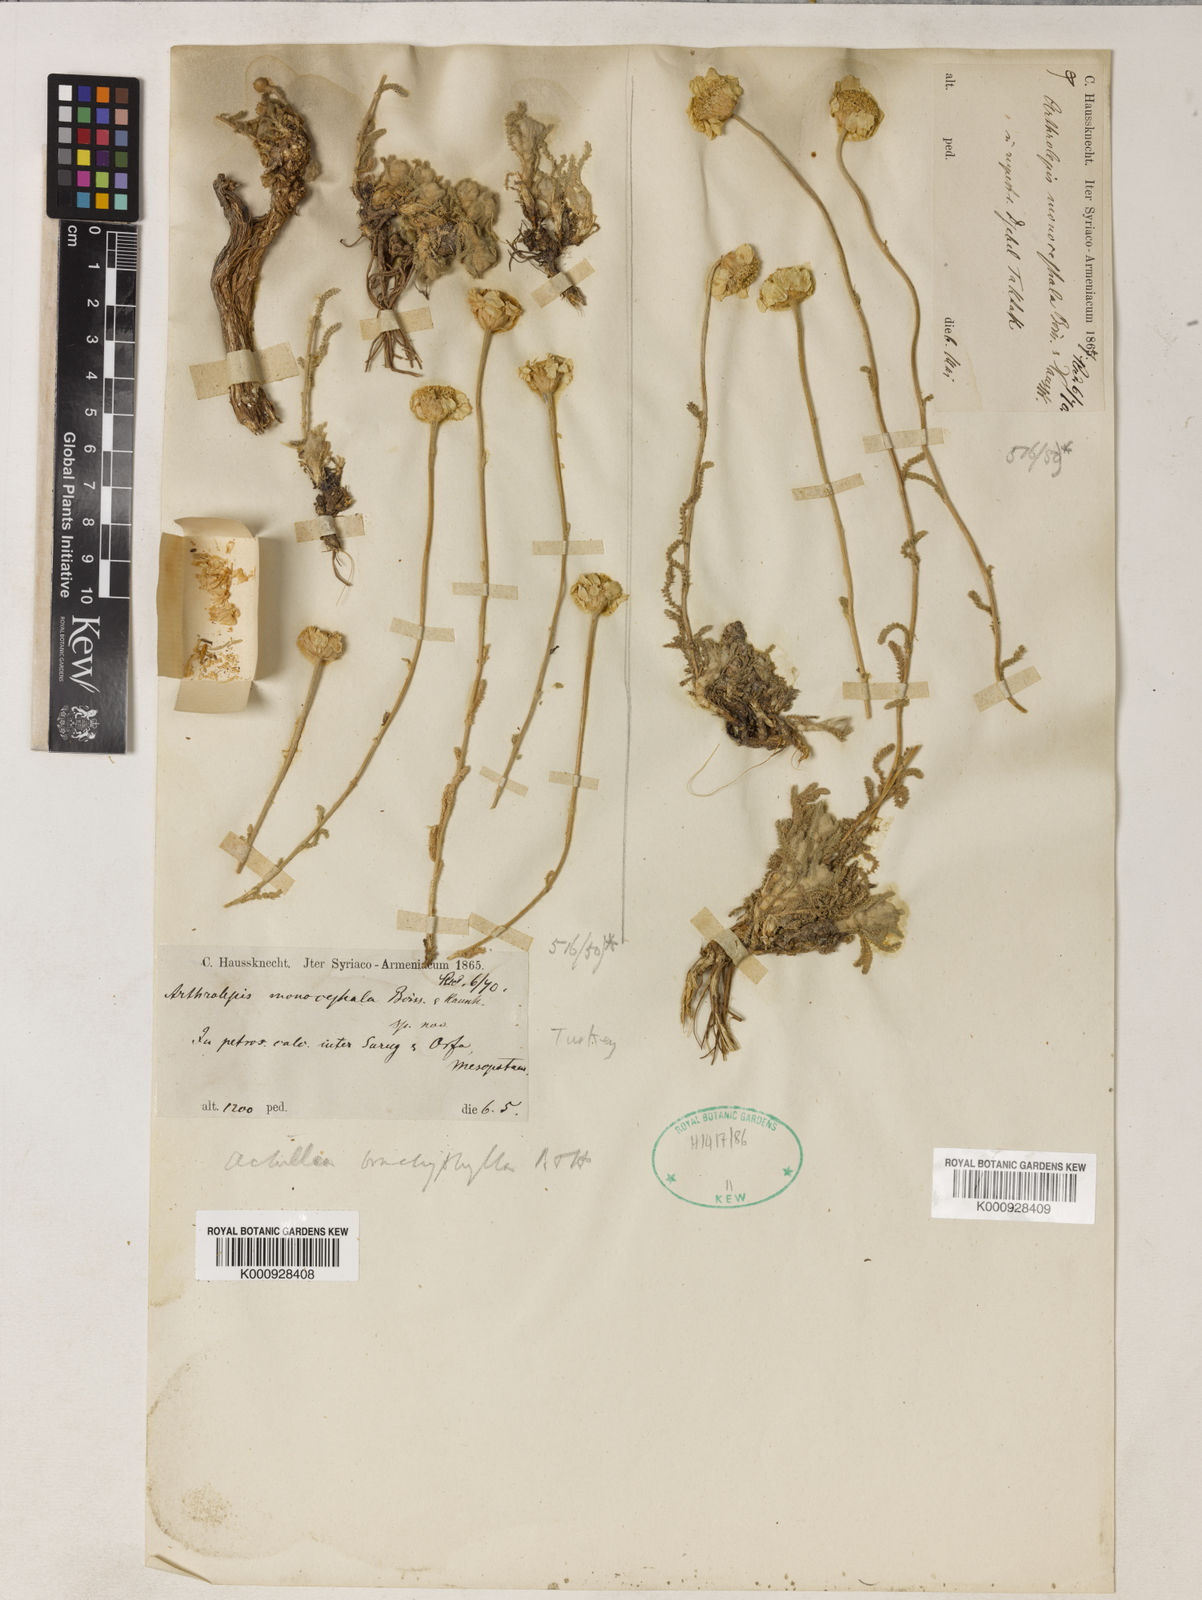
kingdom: Plantae
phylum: Tracheophyta
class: Magnoliopsida
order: Asterales
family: Asteraceae
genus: Achillea
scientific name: Achillea brachyphylla
